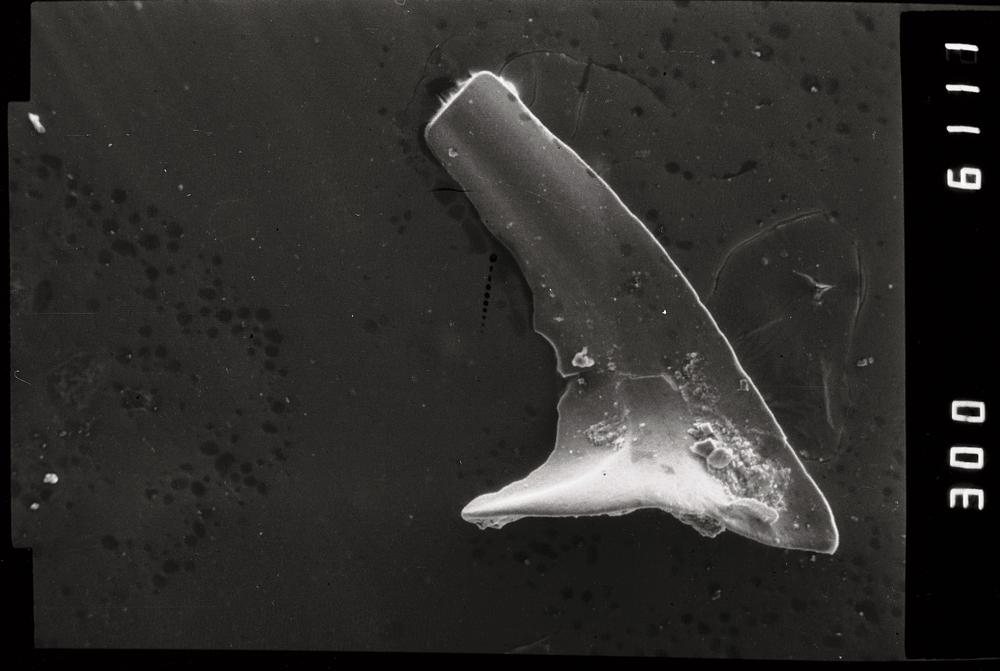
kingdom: Animalia
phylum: Annelida
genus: Paltodus
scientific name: Paltodus
